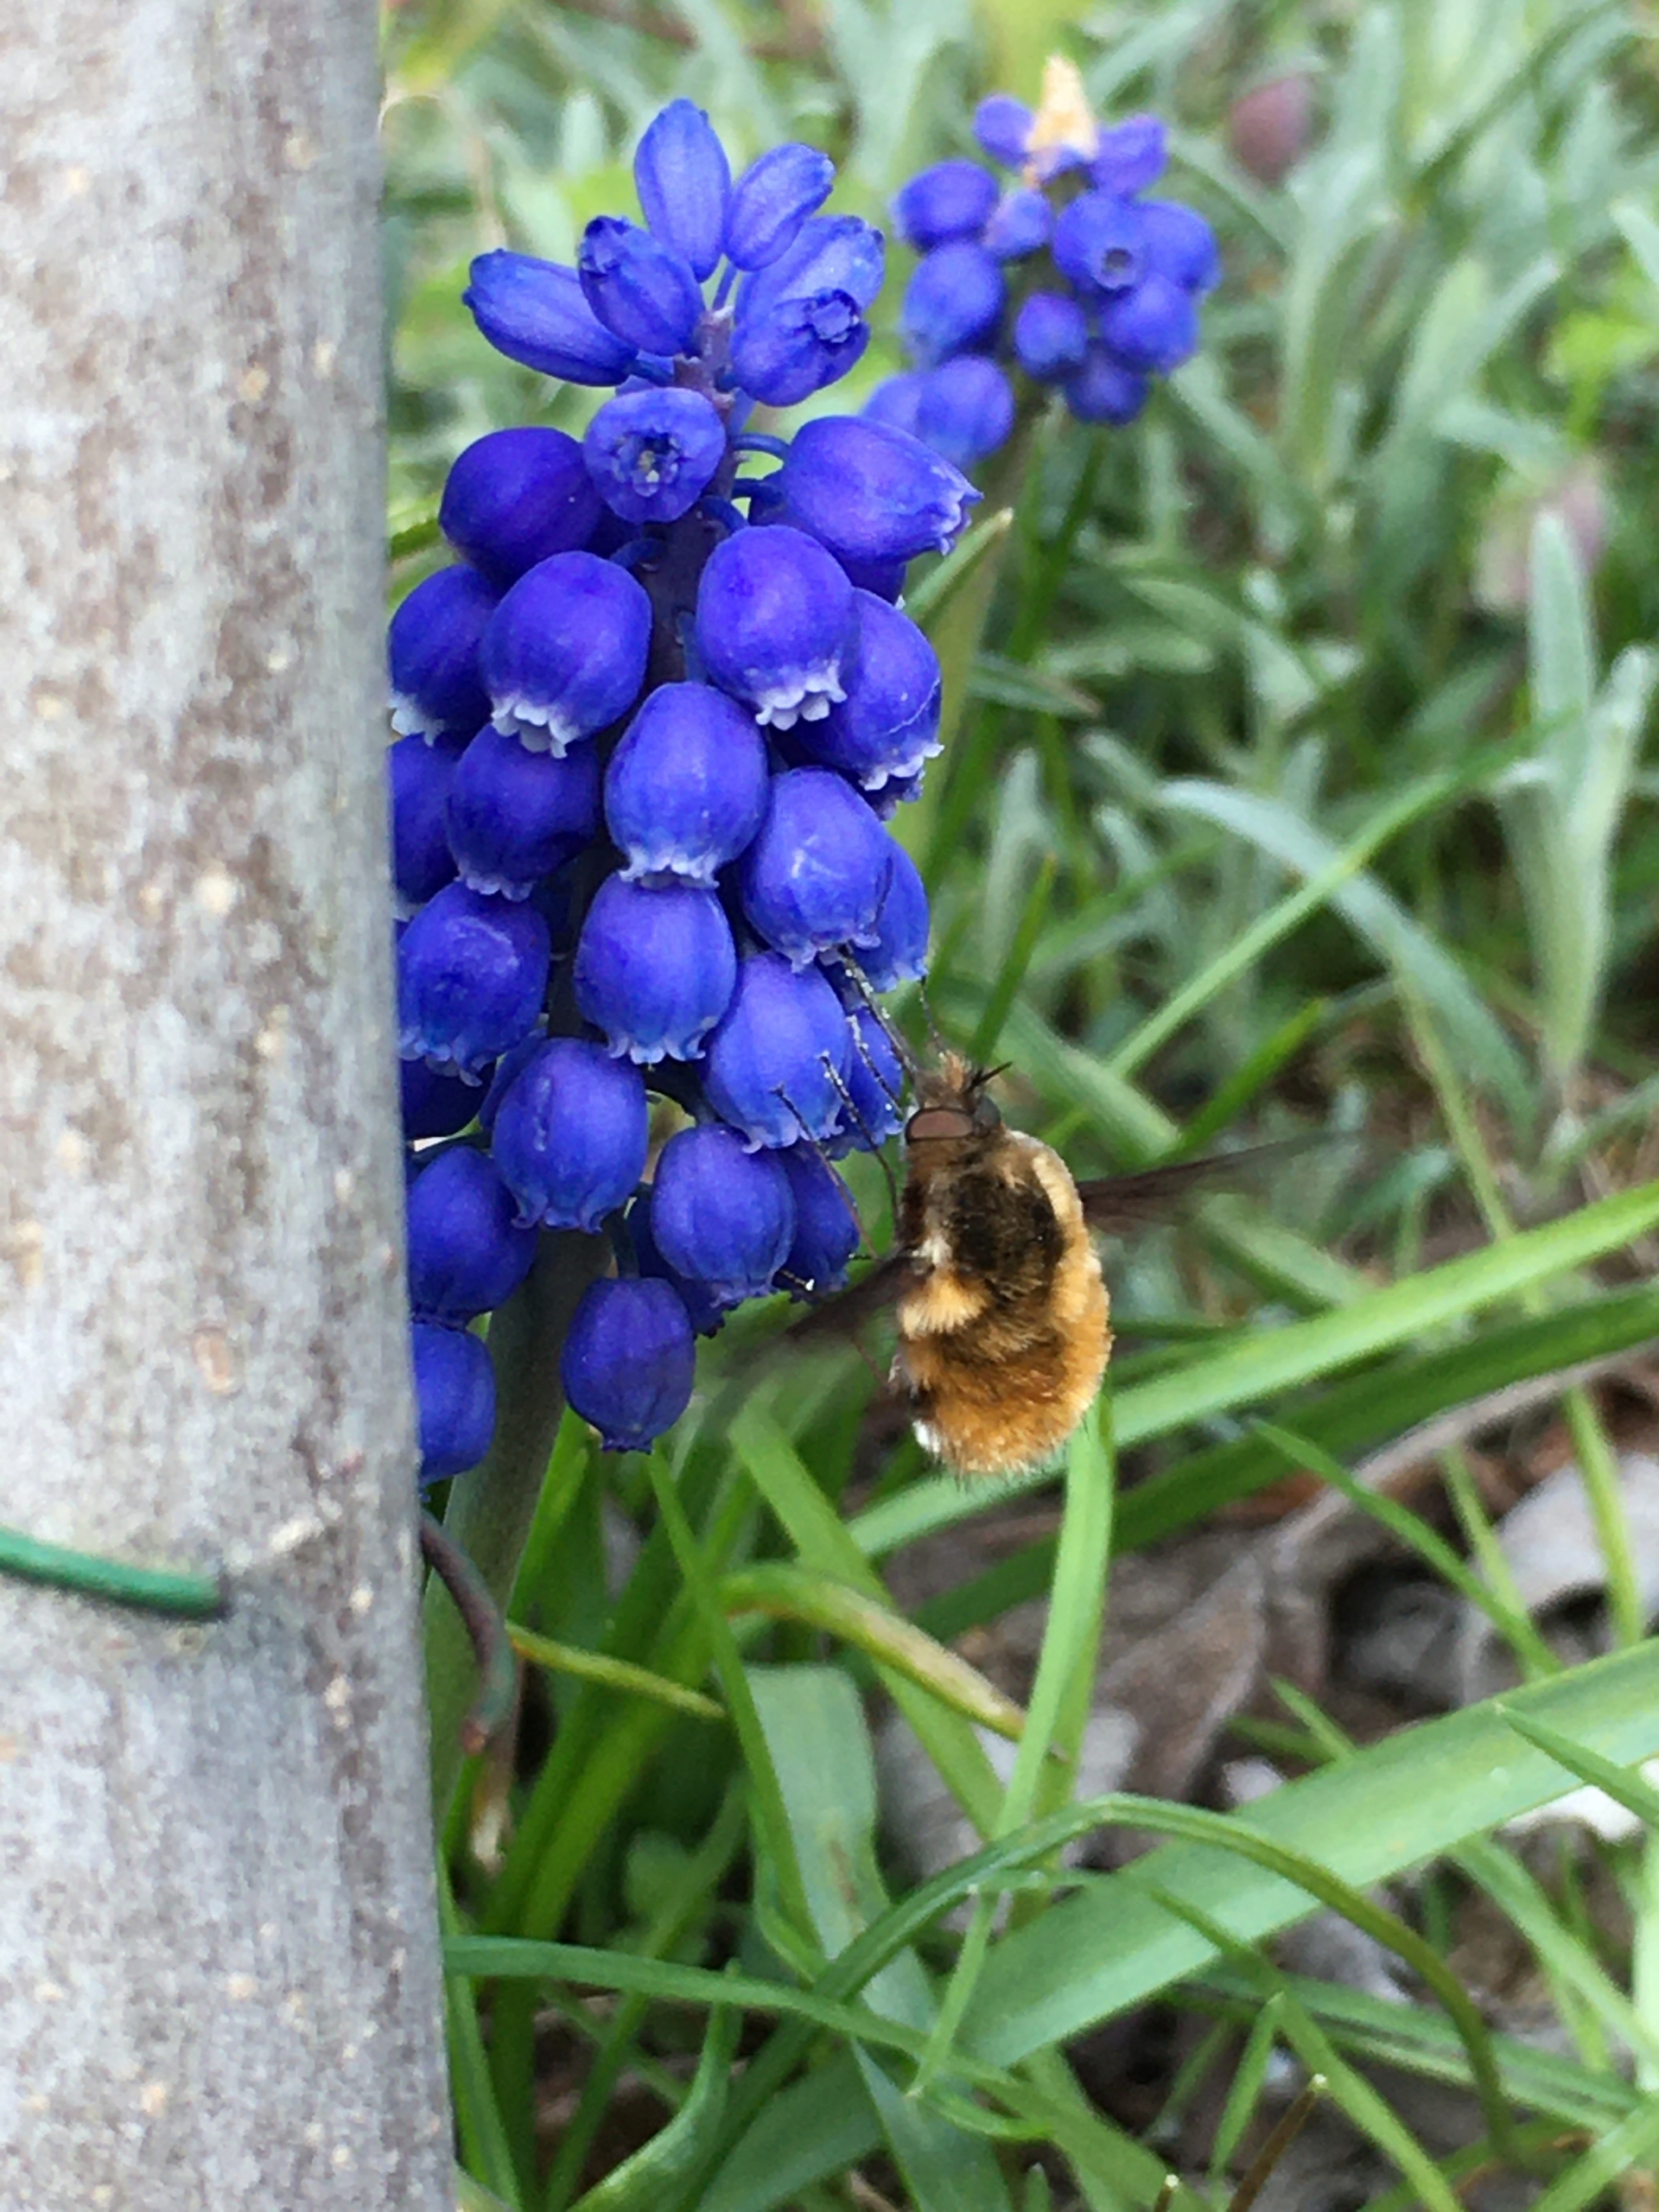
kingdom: Animalia
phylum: Arthropoda
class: Insecta
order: Diptera
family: Bombyliidae
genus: Bombylius
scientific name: Bombylius major
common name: Stor humleflue
